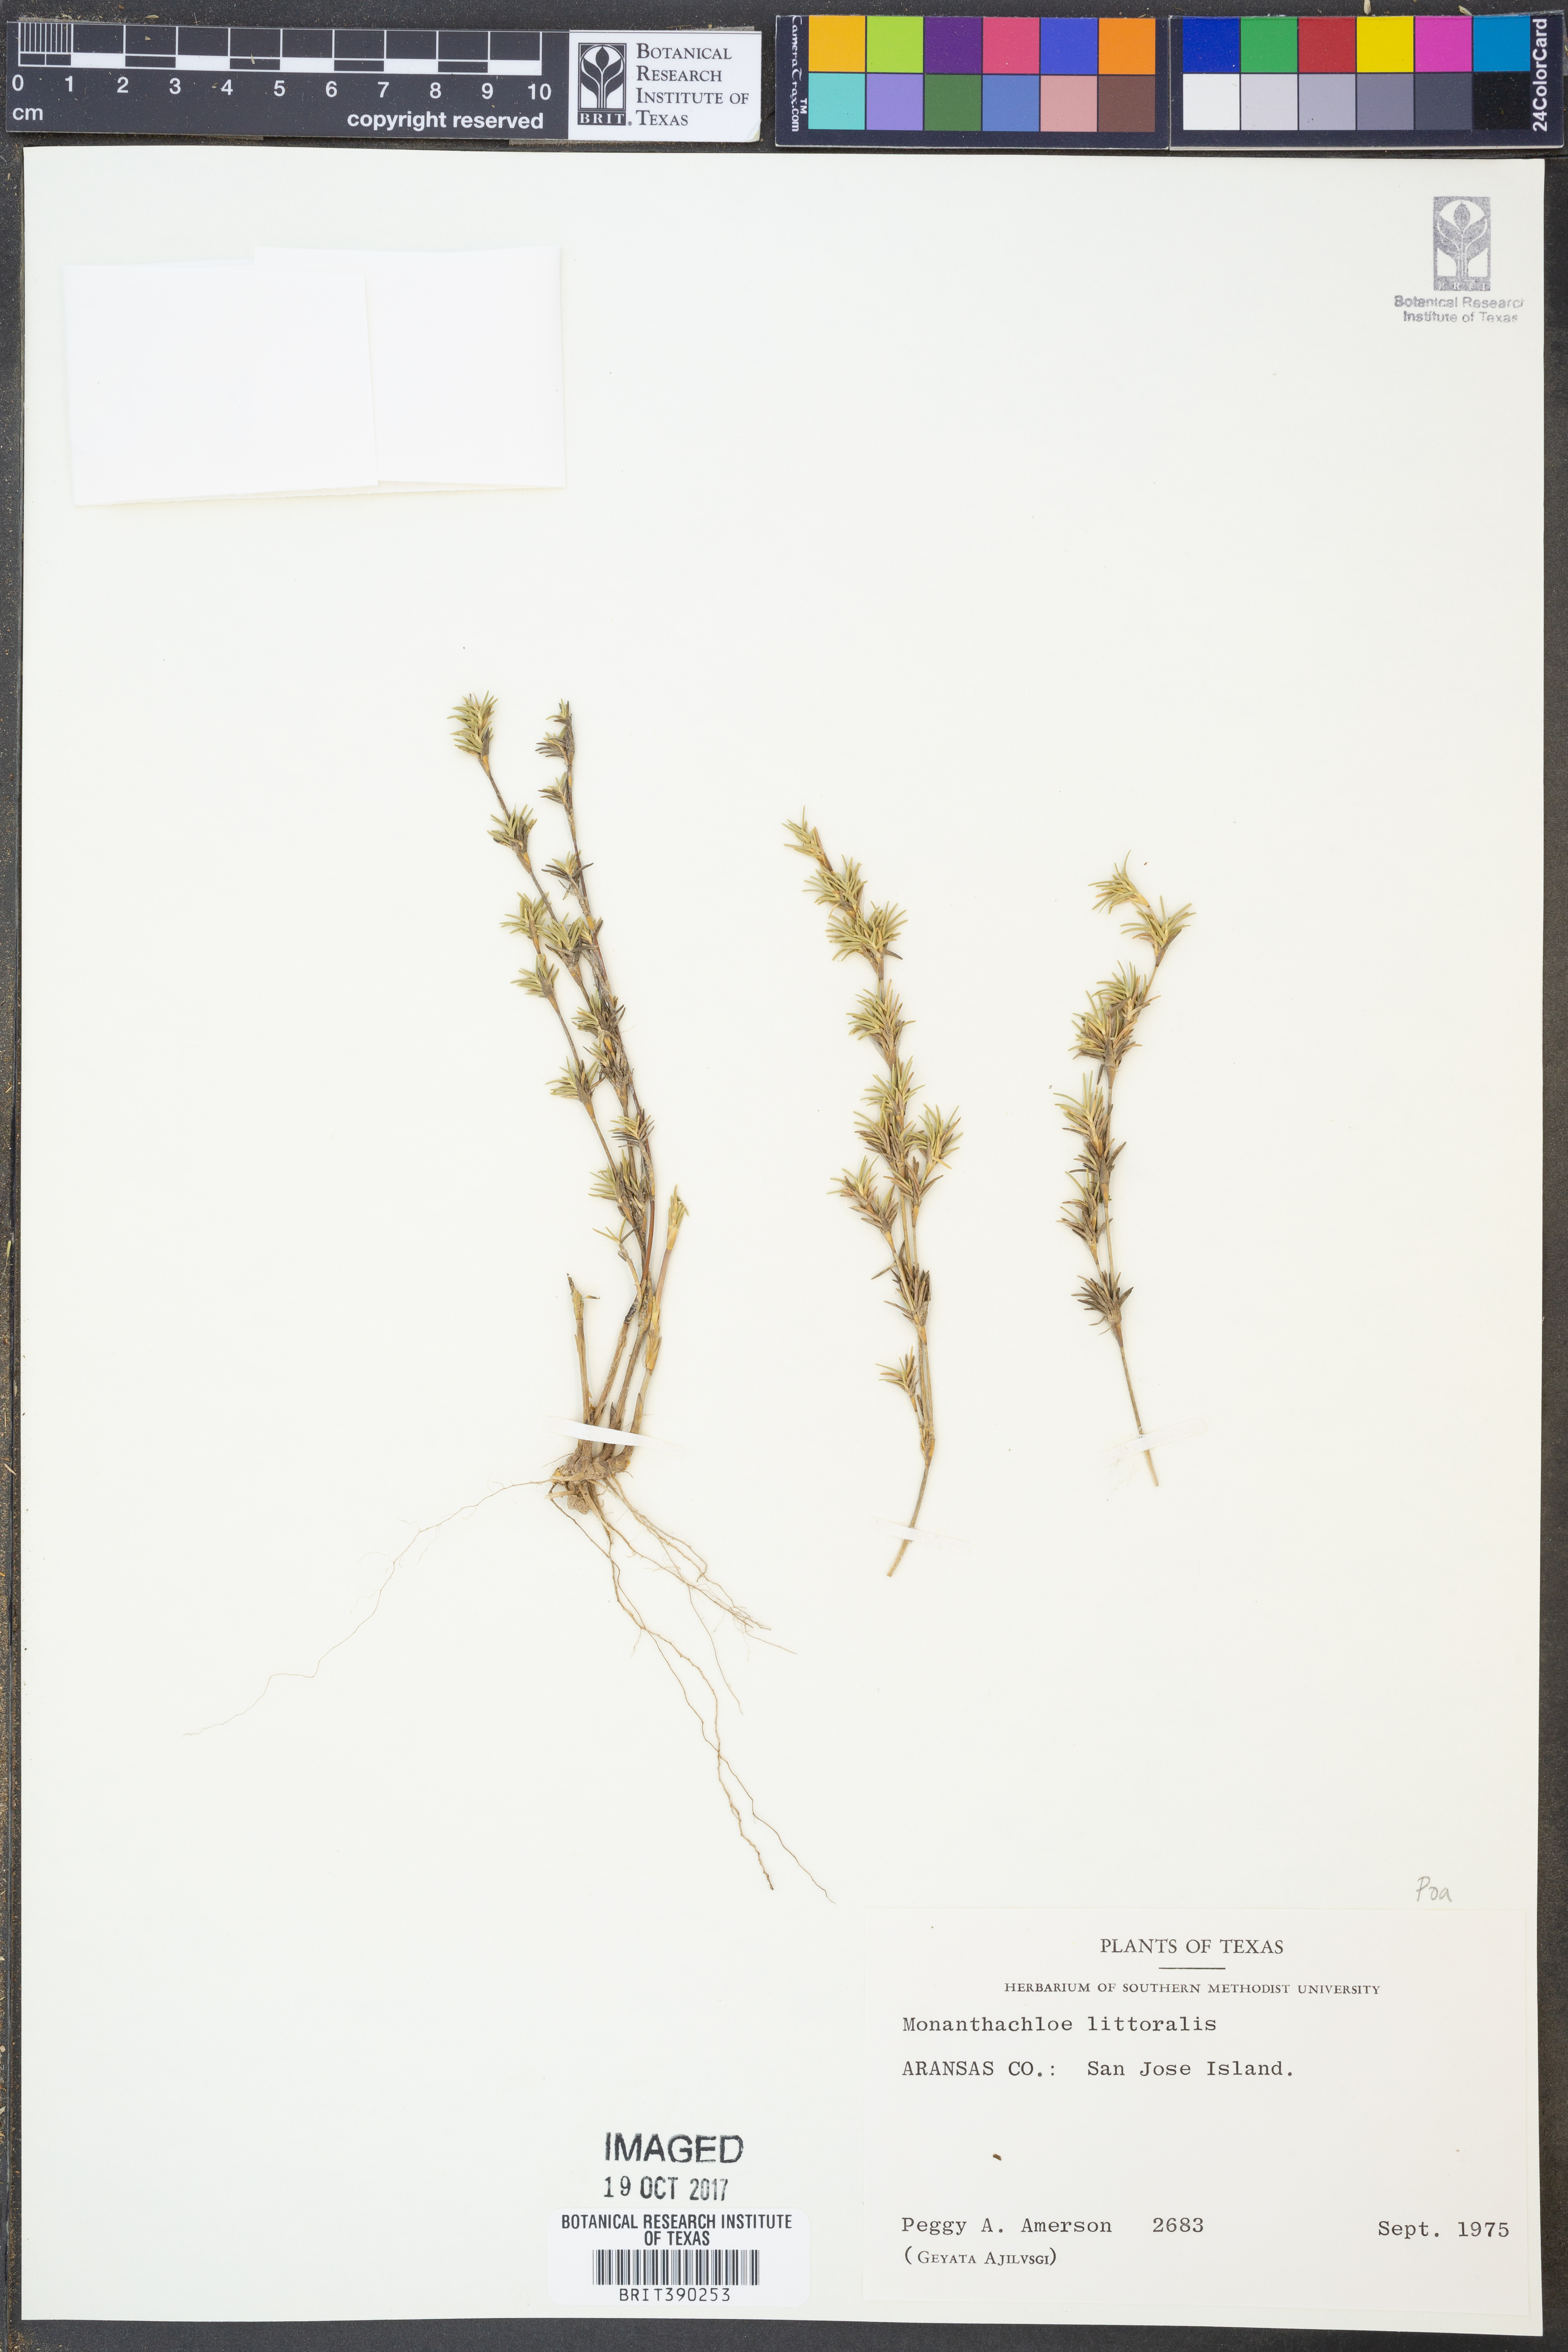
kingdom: Plantae
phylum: Tracheophyta
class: Liliopsida
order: Poales
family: Poaceae
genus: Distichlis
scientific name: Distichlis littoralis
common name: Shore grass
